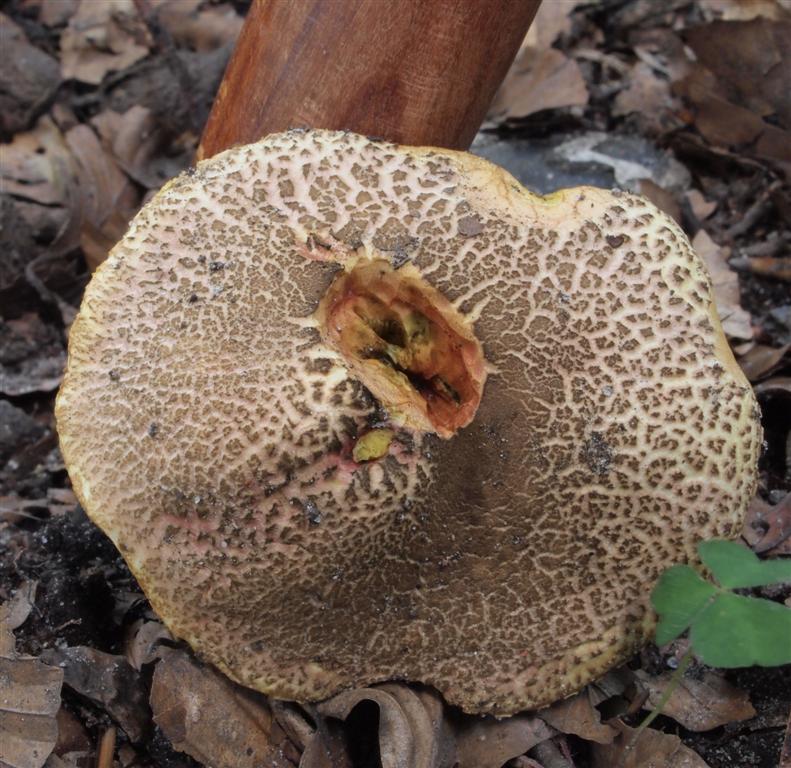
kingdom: Fungi
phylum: Basidiomycota
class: Agaricomycetes
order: Boletales
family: Boletaceae
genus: Xerocomellus
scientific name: Xerocomellus chrysenteron
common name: rødsprukken rørhat
